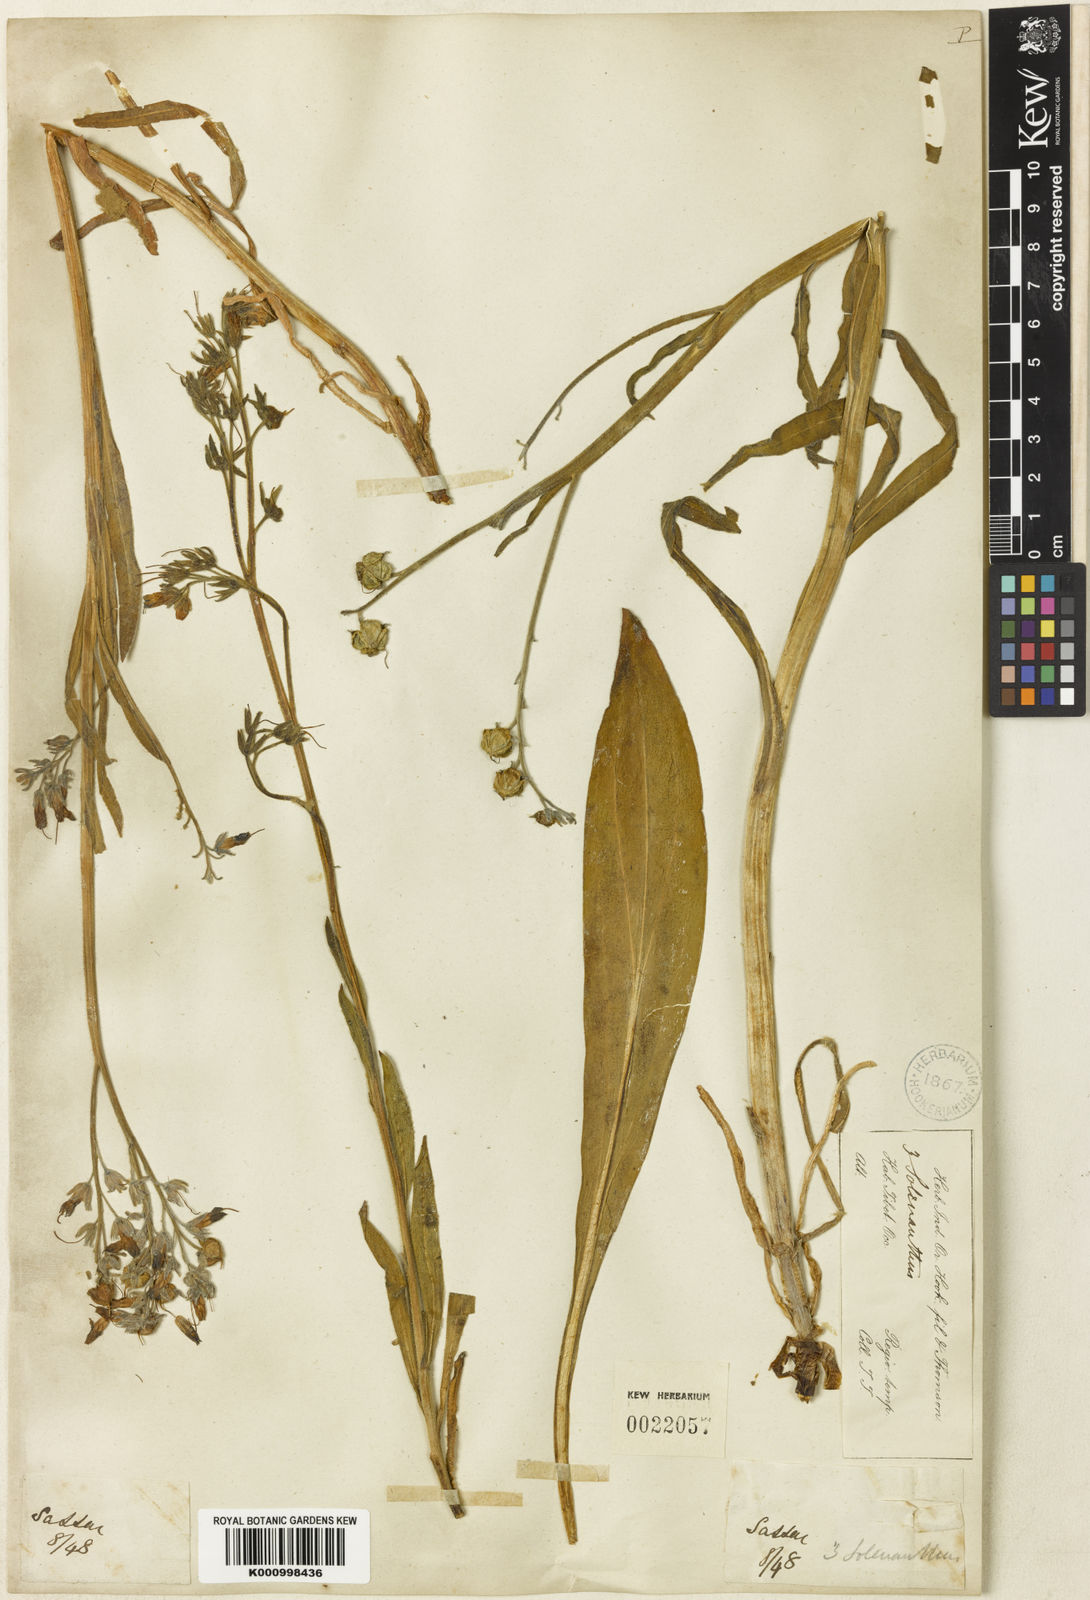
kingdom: Plantae
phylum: Tracheophyta
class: Magnoliopsida
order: Boraginales
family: Boraginaceae
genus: Lindelofia
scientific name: Lindelofia stylosa
